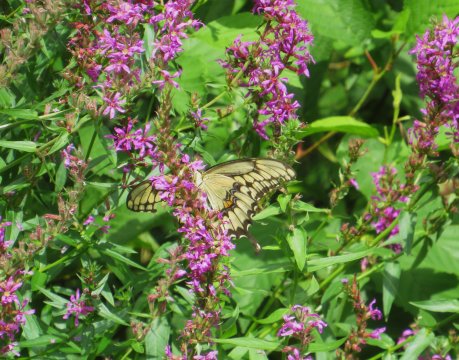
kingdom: Animalia
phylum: Arthropoda
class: Insecta
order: Lepidoptera
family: Papilionidae
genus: Papilio
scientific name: Papilio cresphontes
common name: Eastern Giant Swallowtail
